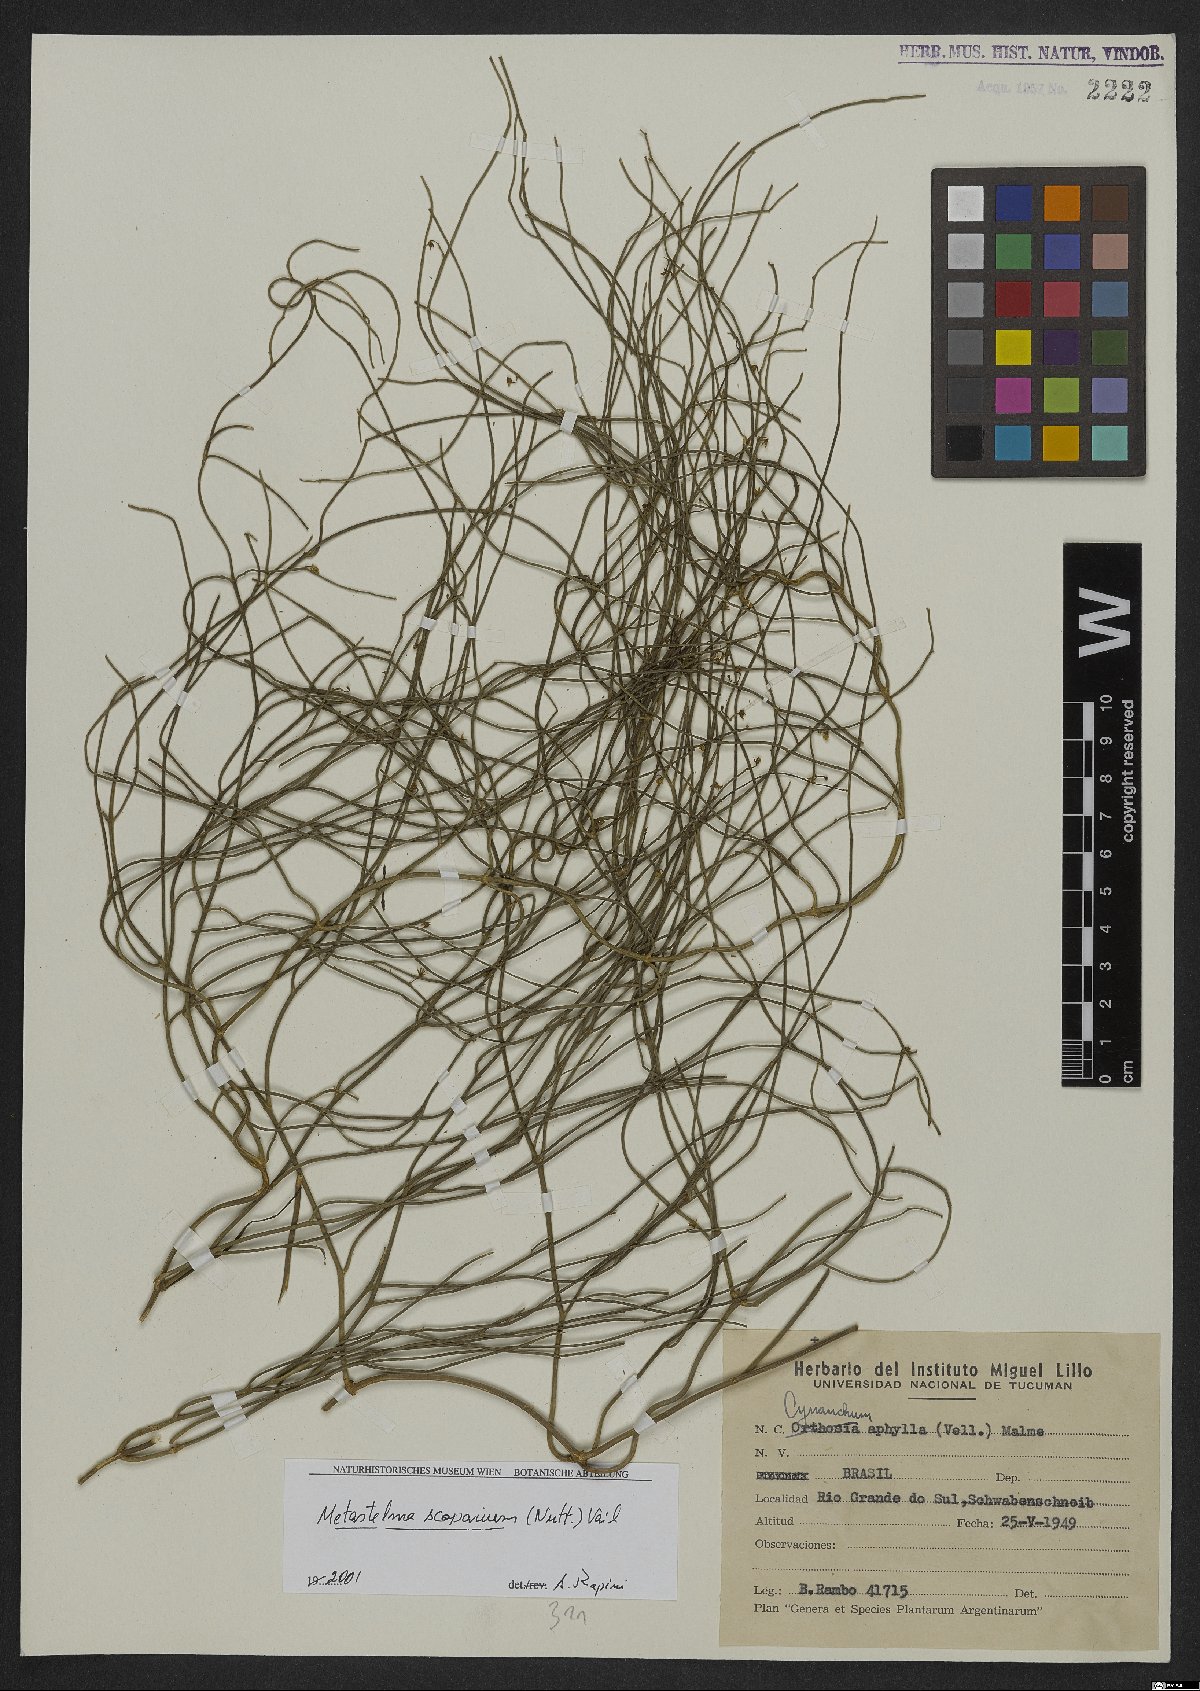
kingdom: Plantae
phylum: Tracheophyta
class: Magnoliopsida
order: Gentianales
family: Apocynaceae
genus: Orthosia
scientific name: Orthosia scoparia
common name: Leafless swallow-wort
